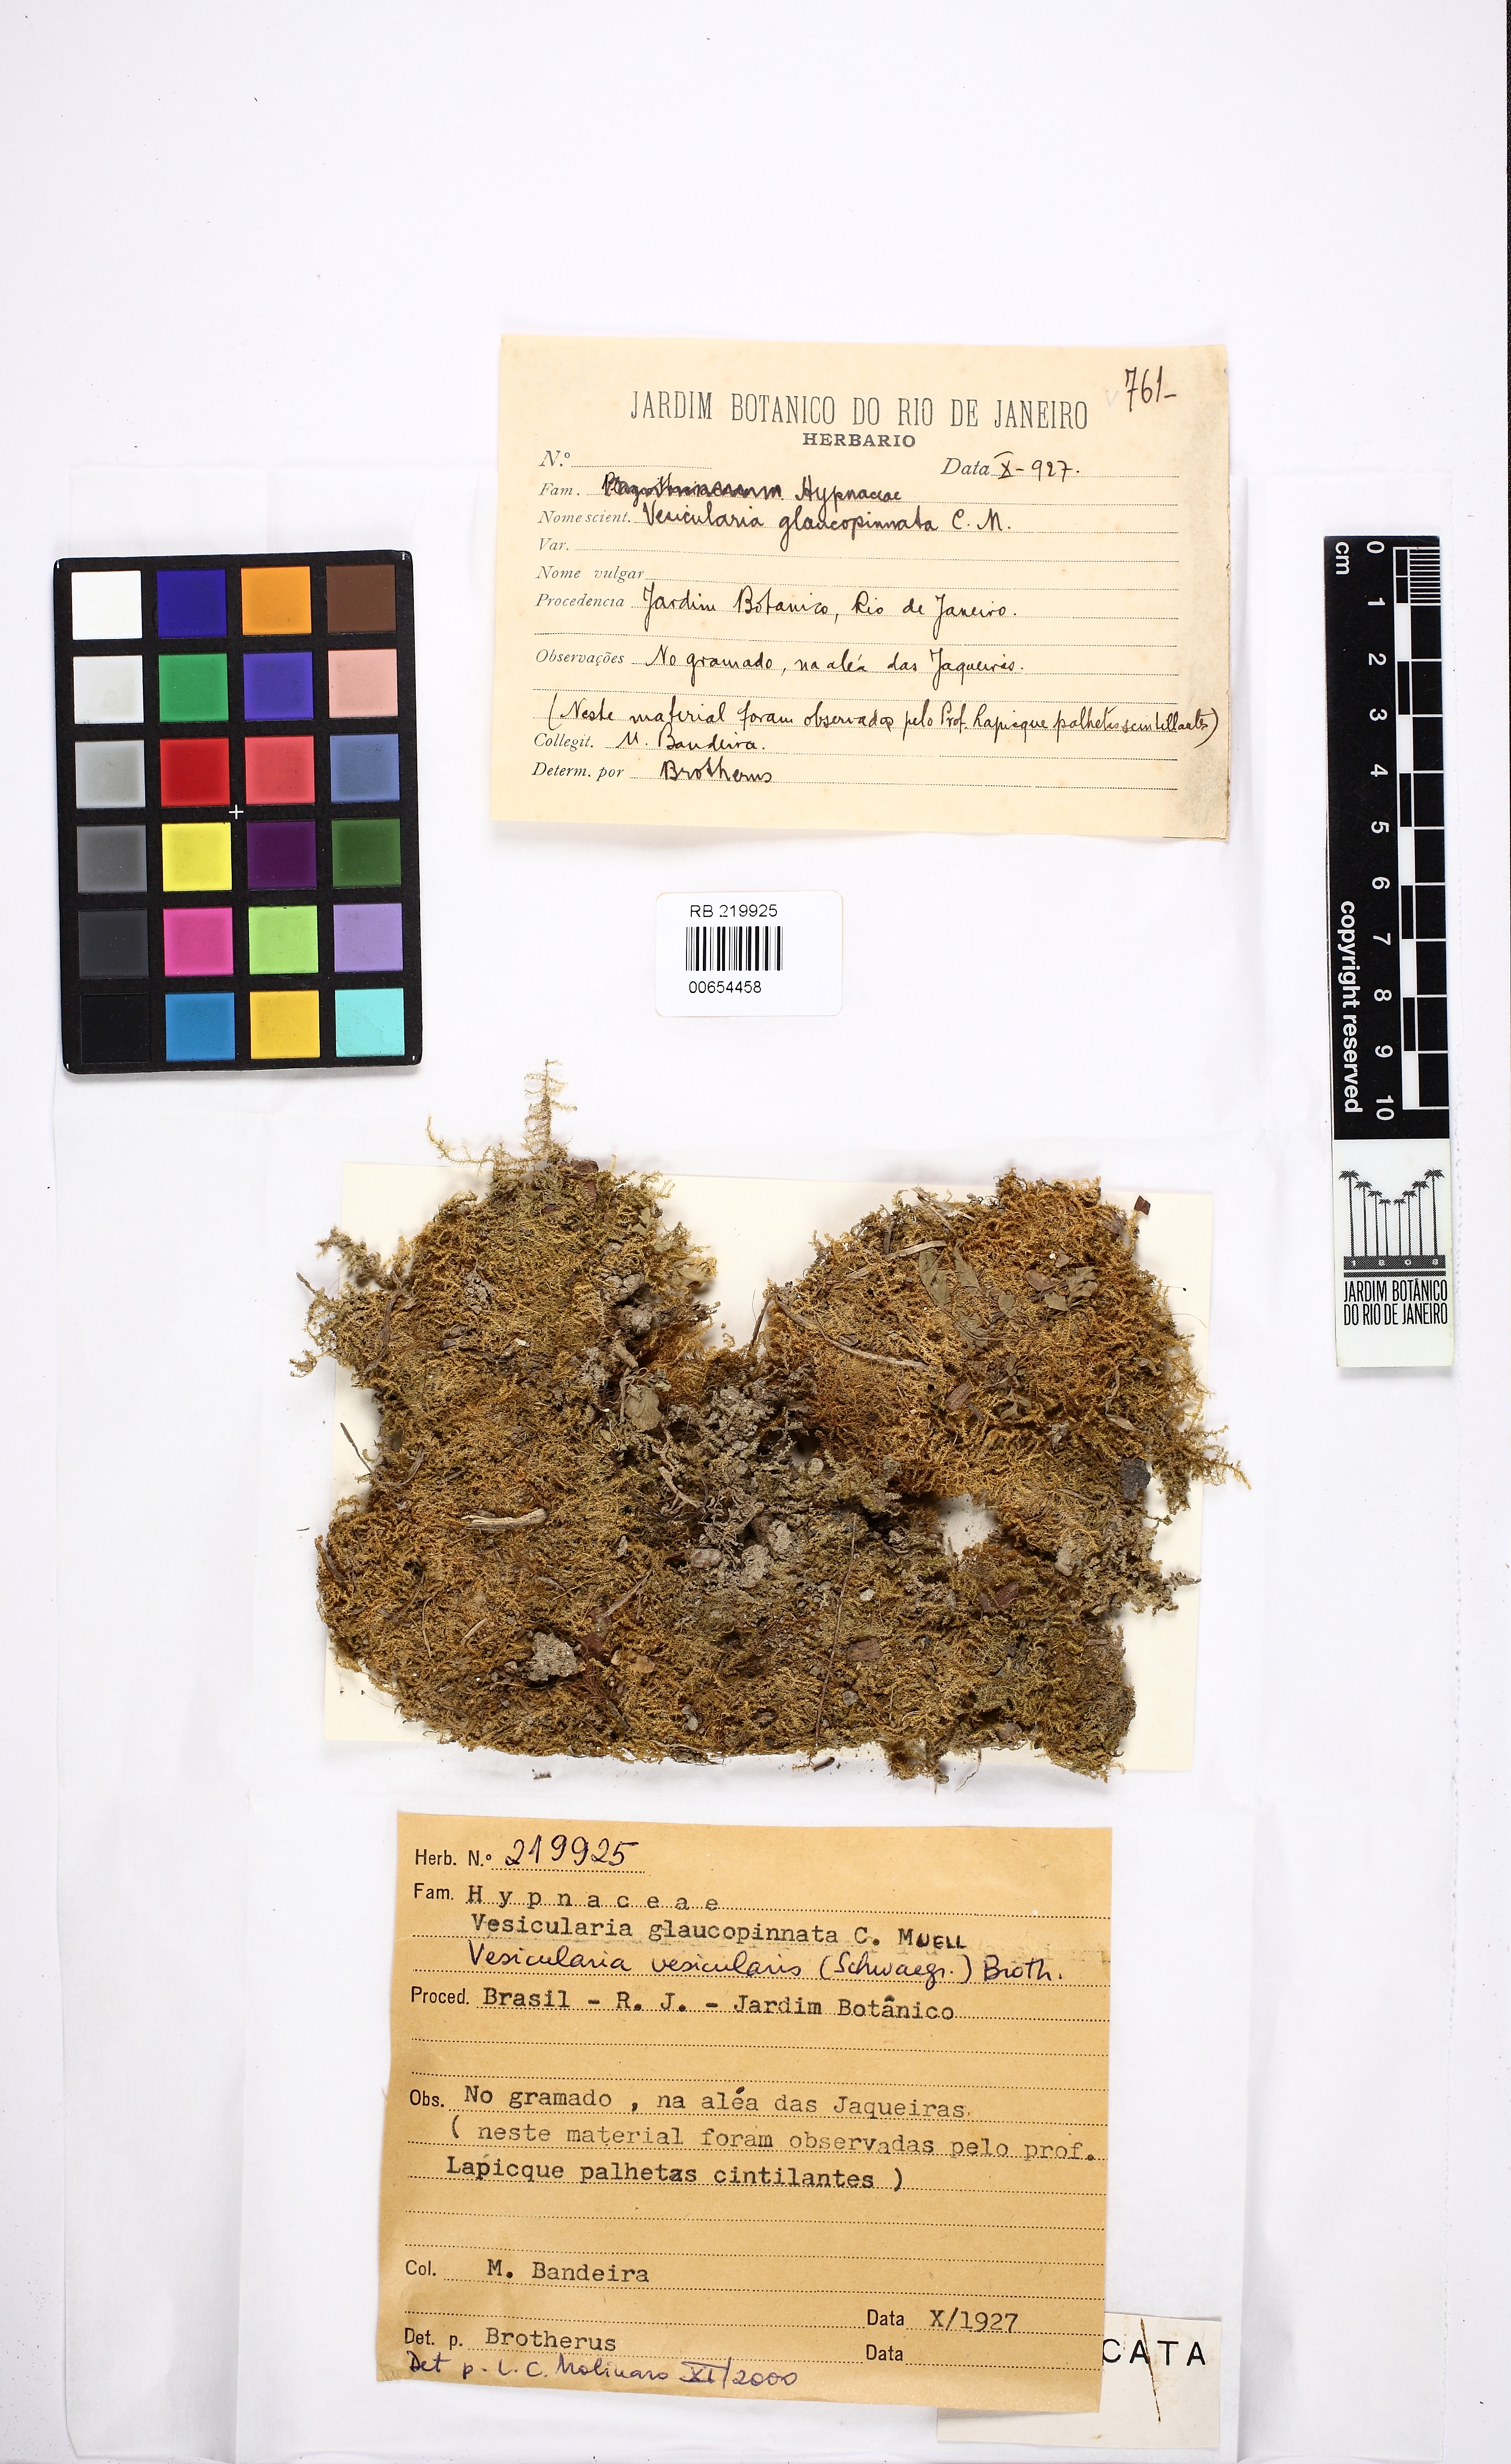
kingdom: Plantae
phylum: Bryophyta
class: Bryopsida
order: Hypnales
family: Hypnaceae
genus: Vesicularia
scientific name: Vesicularia vesicularis
